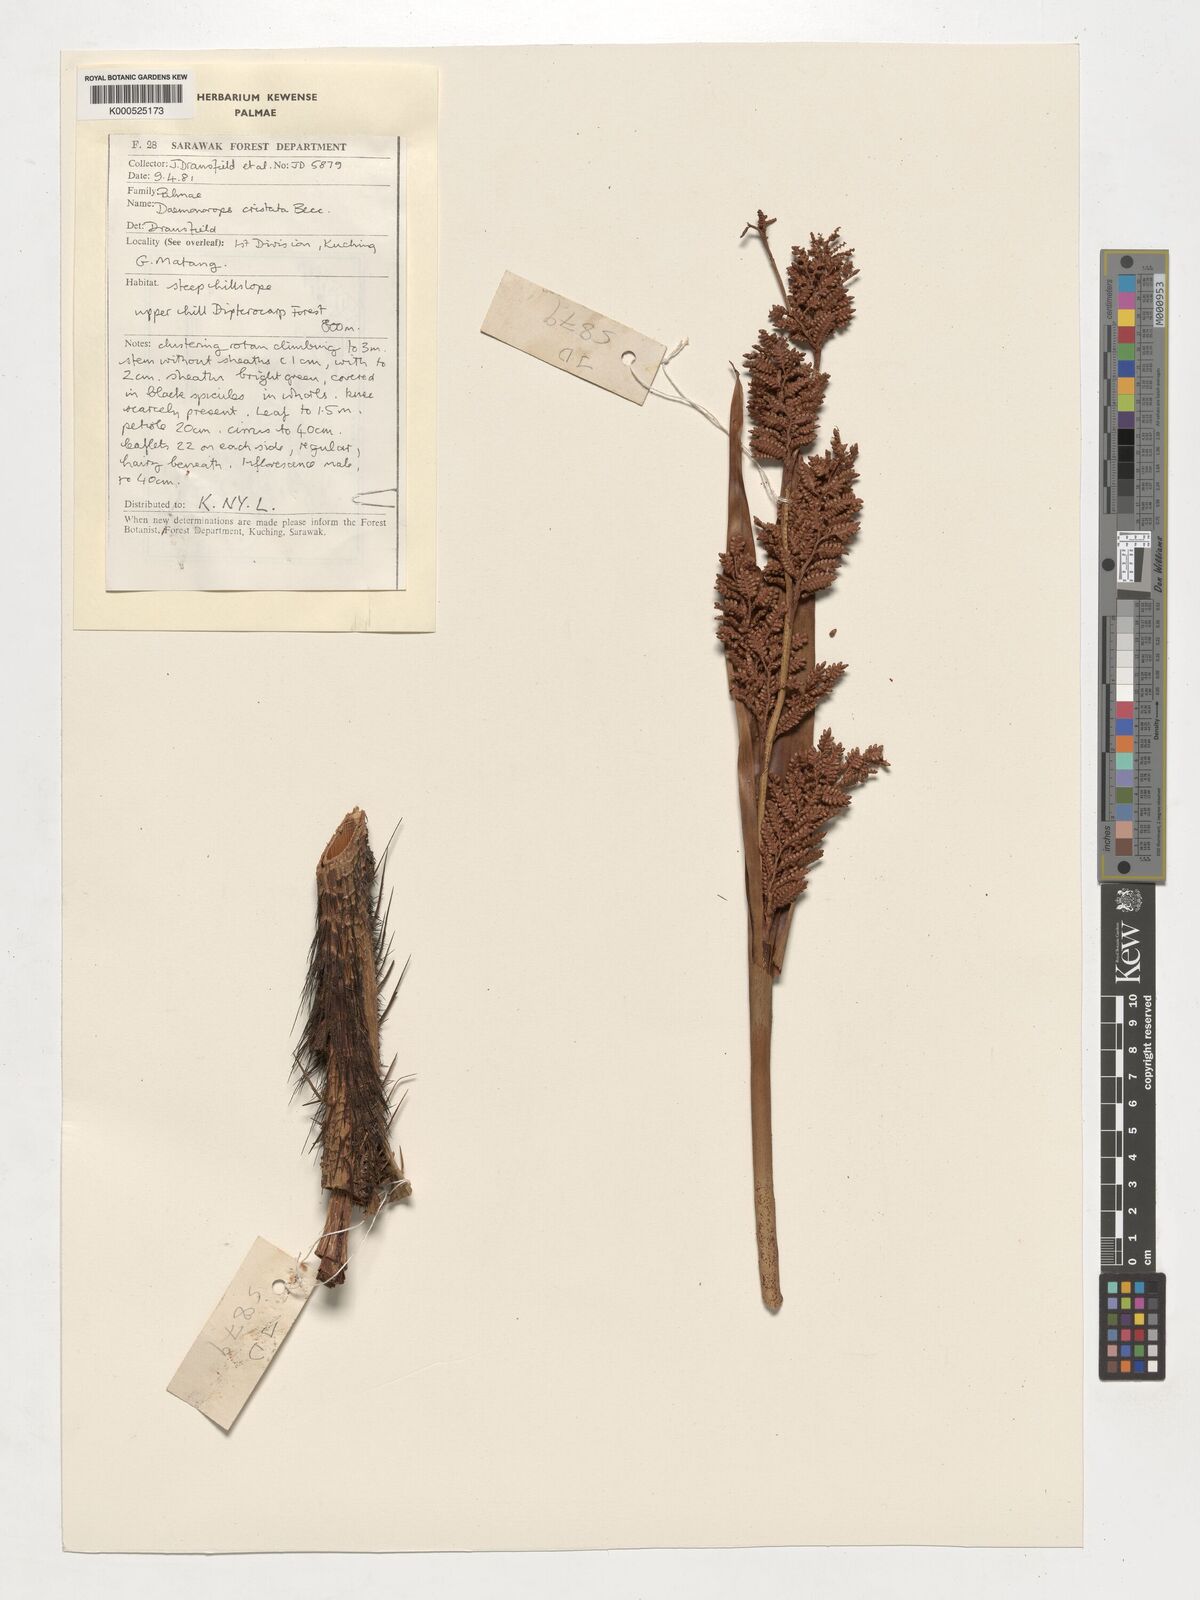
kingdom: Plantae
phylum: Tracheophyta
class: Liliopsida
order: Arecales
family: Arecaceae
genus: Calamus
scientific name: Calamus cristatus
